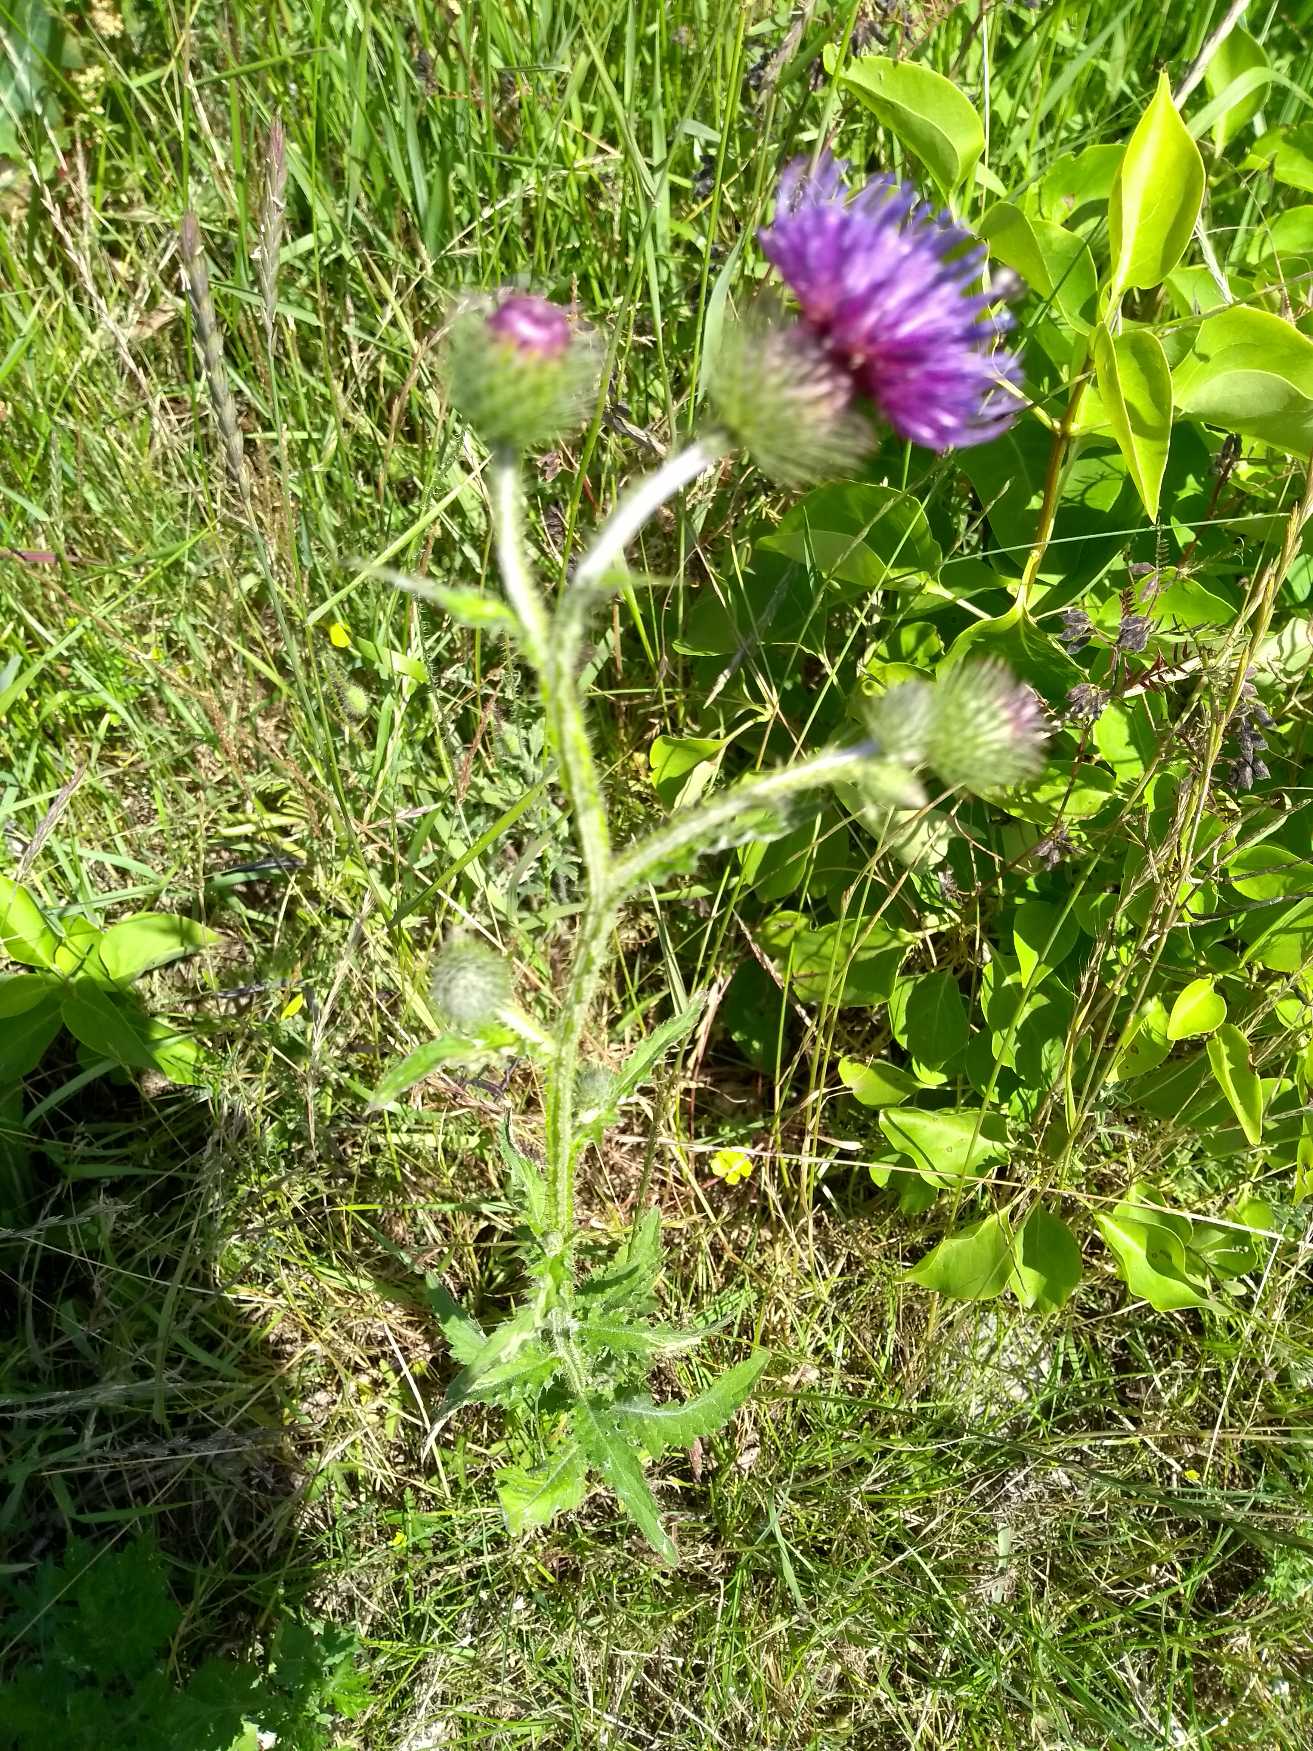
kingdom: Plantae
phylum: Tracheophyta
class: Magnoliopsida
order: Asterales
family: Asteraceae
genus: Carduus
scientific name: Carduus crispus
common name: Kruset tidsel
